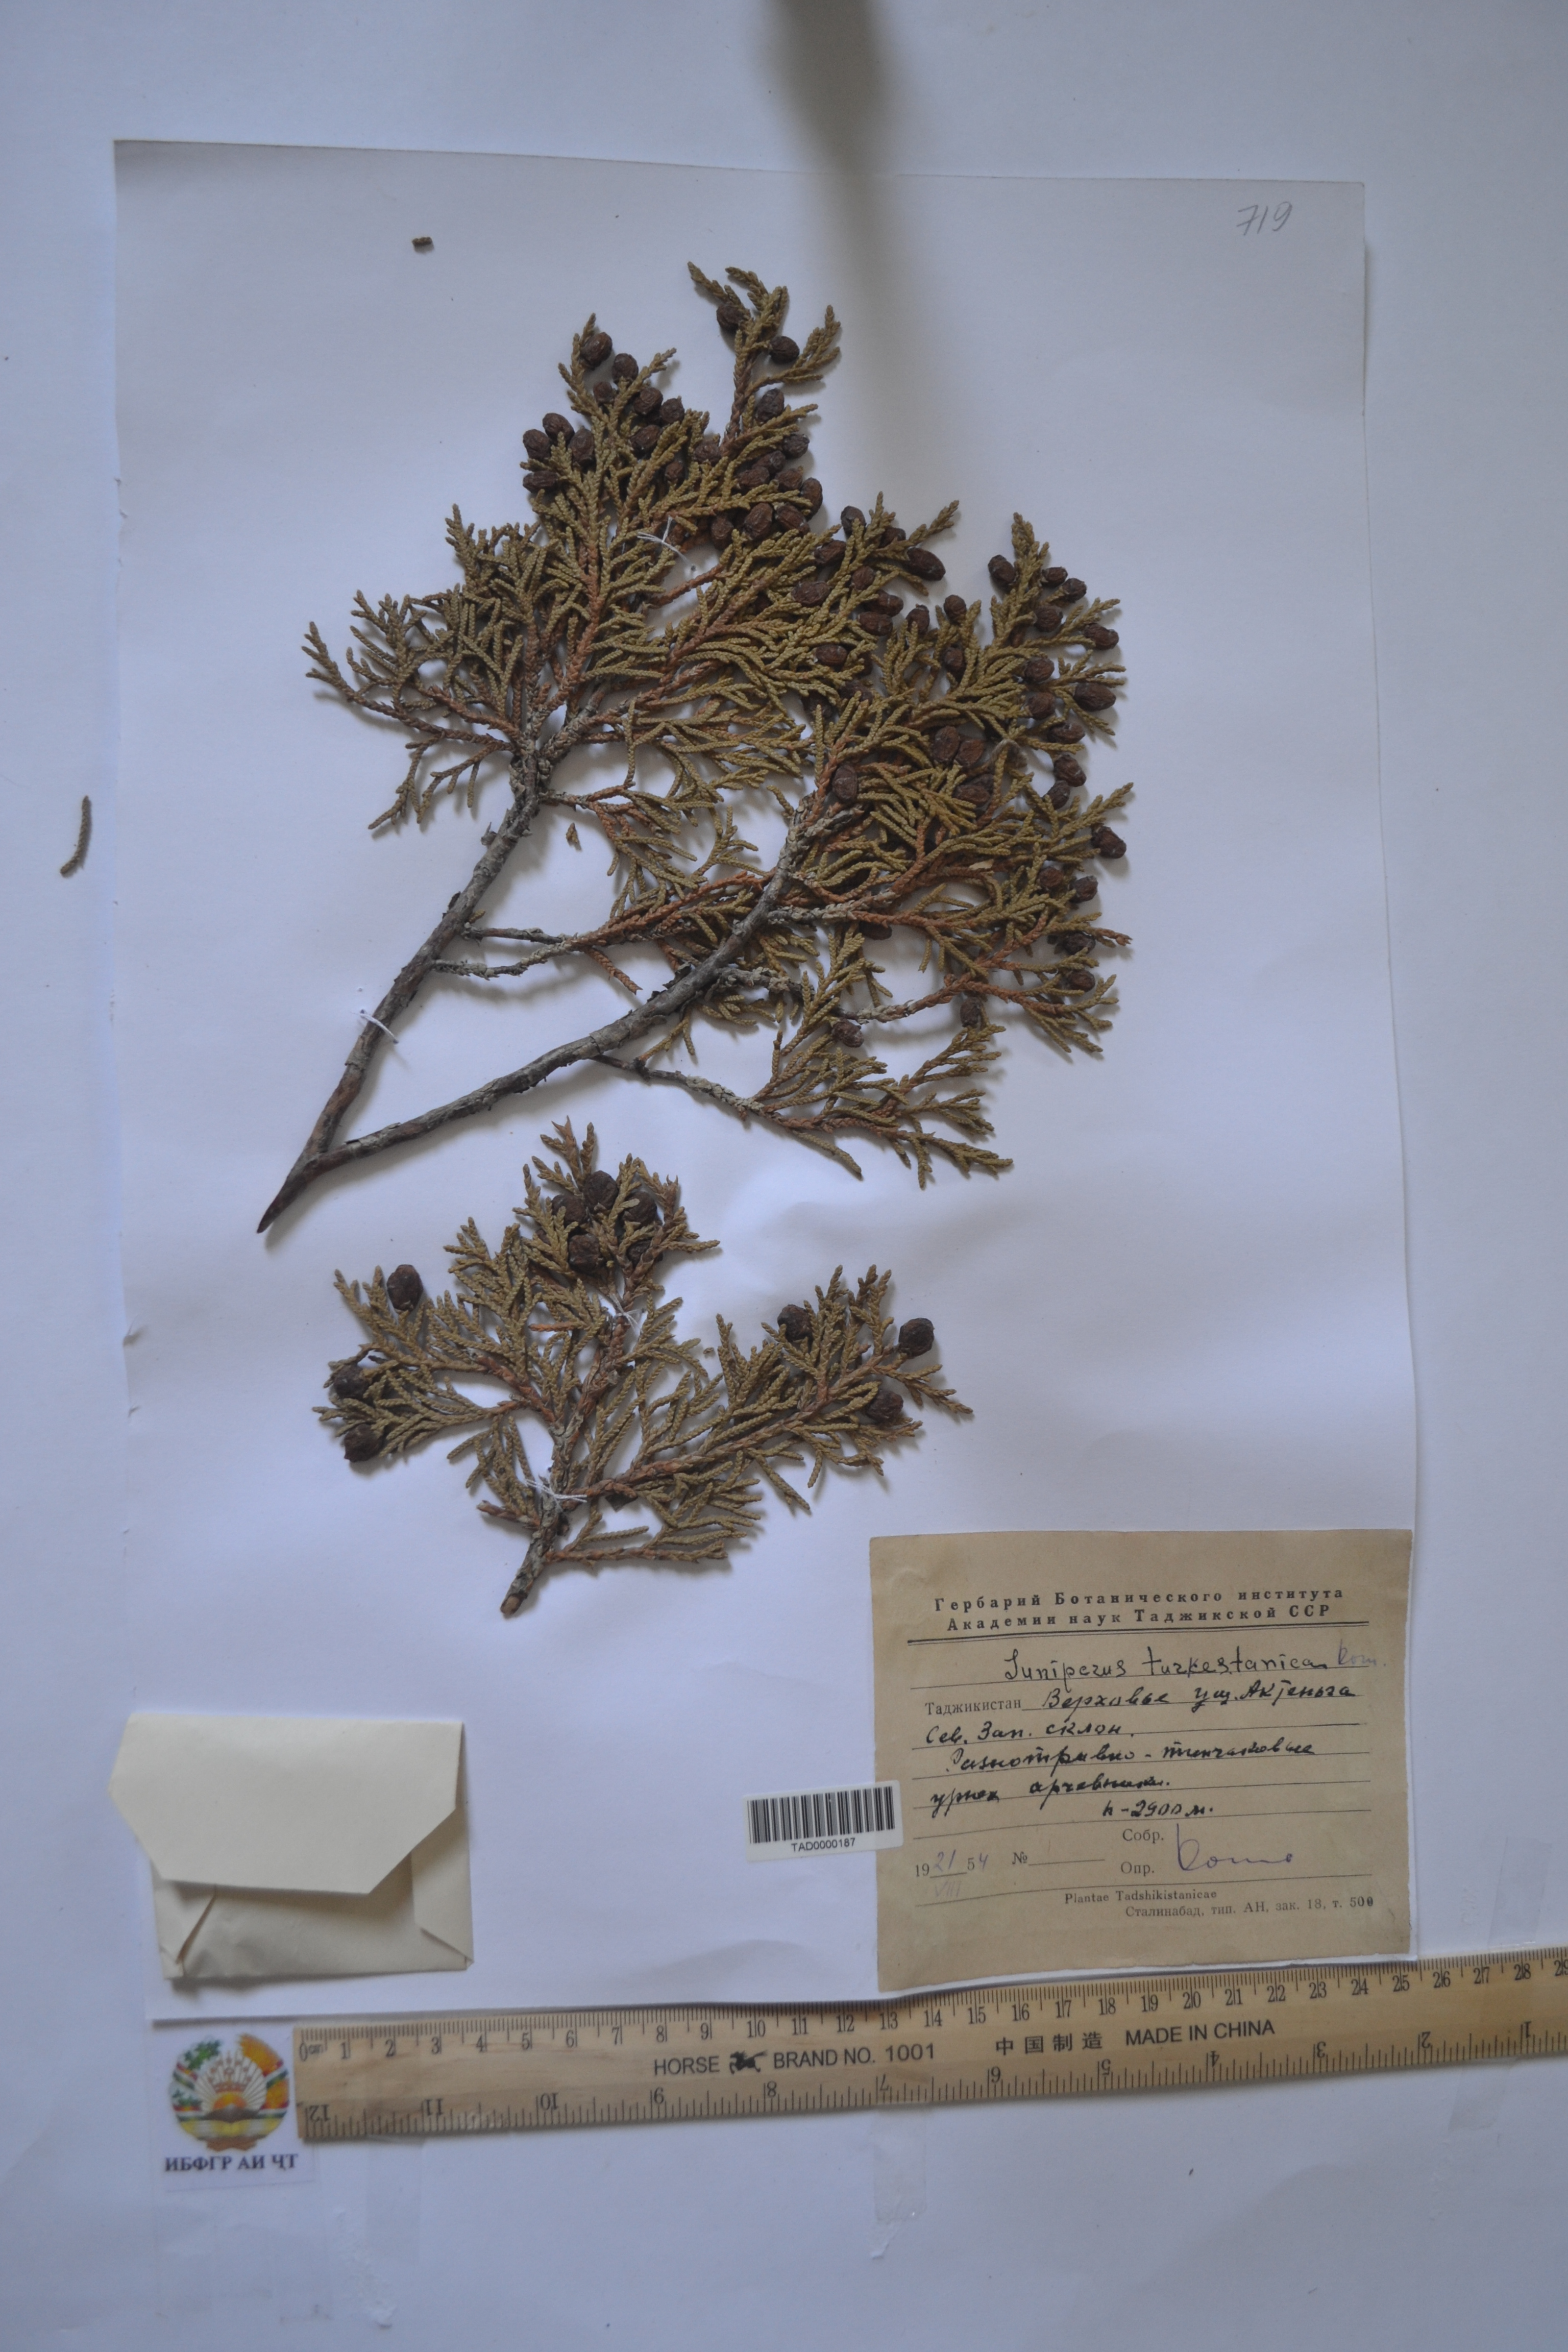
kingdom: Plantae
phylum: Tracheophyta
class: Pinopsida
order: Pinales
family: Cupressaceae
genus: Juniperus
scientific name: Juniperus pseudosabina
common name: Turkestan juniper
